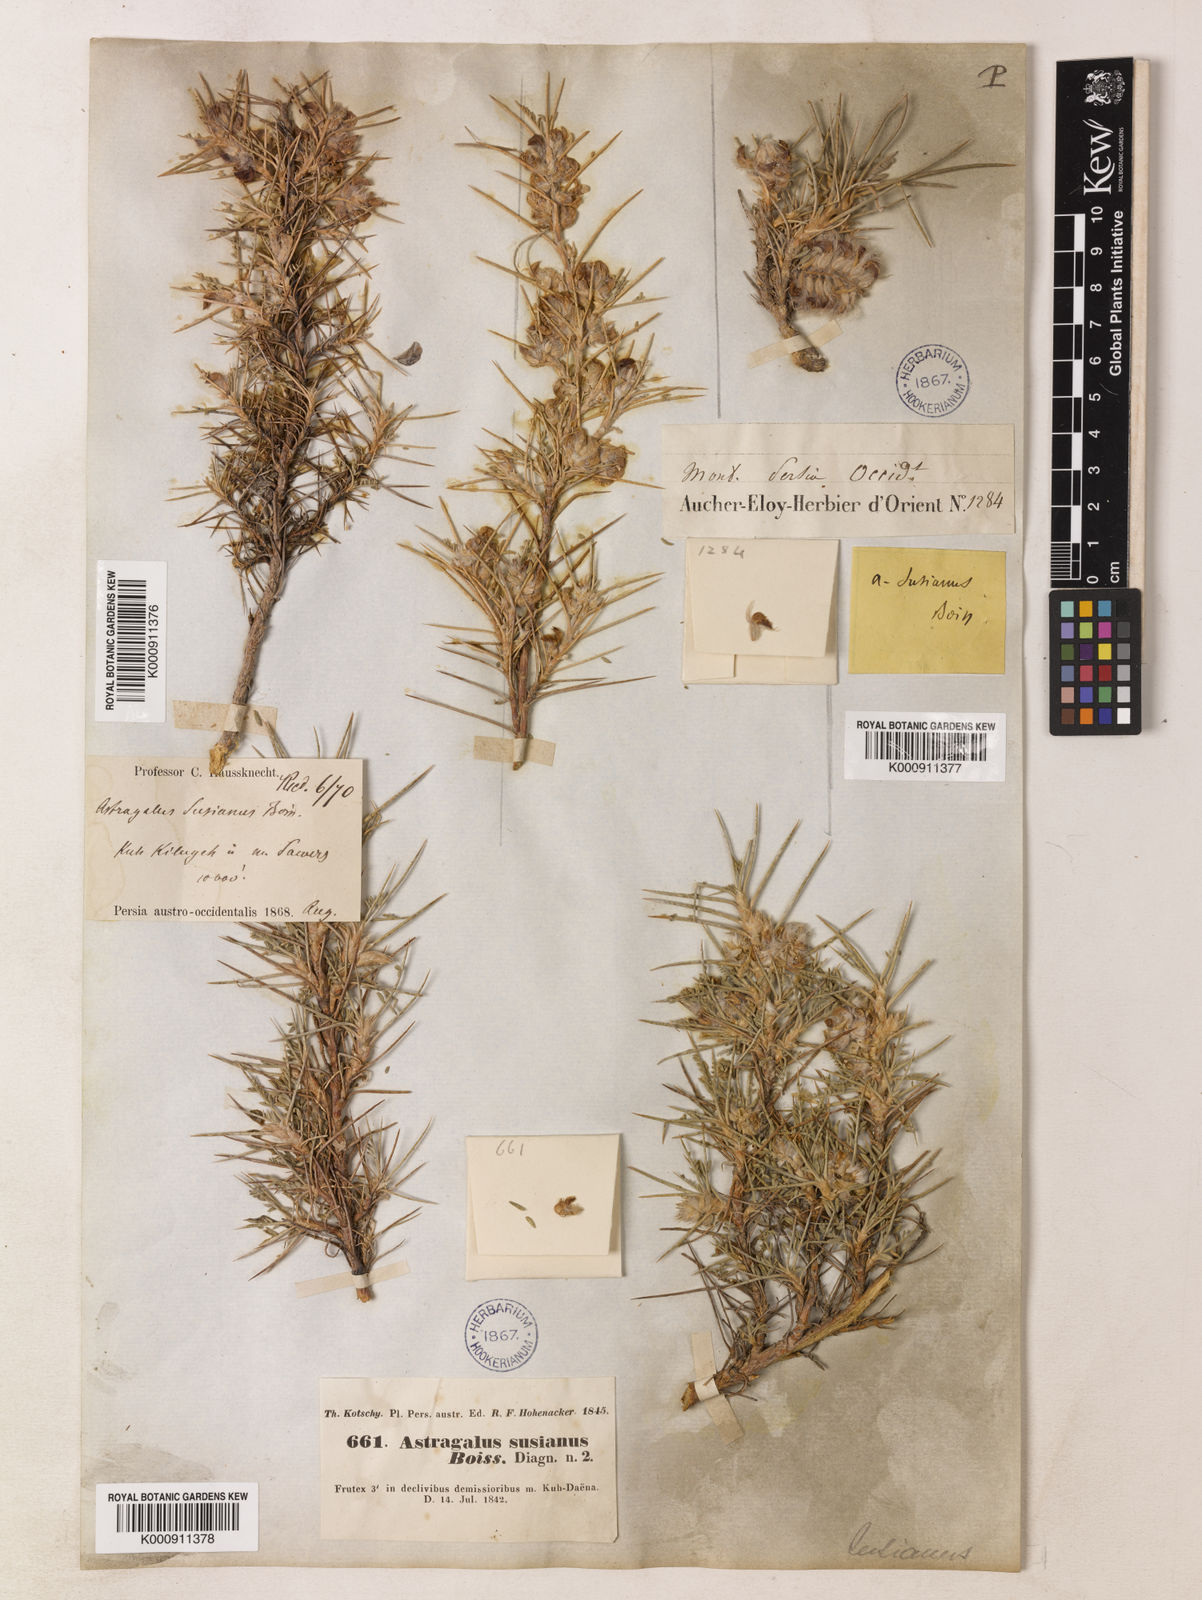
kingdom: Plantae
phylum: Tracheophyta
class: Magnoliopsida
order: Fabales
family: Fabaceae
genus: Astragalus
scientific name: Astragalus susianus
